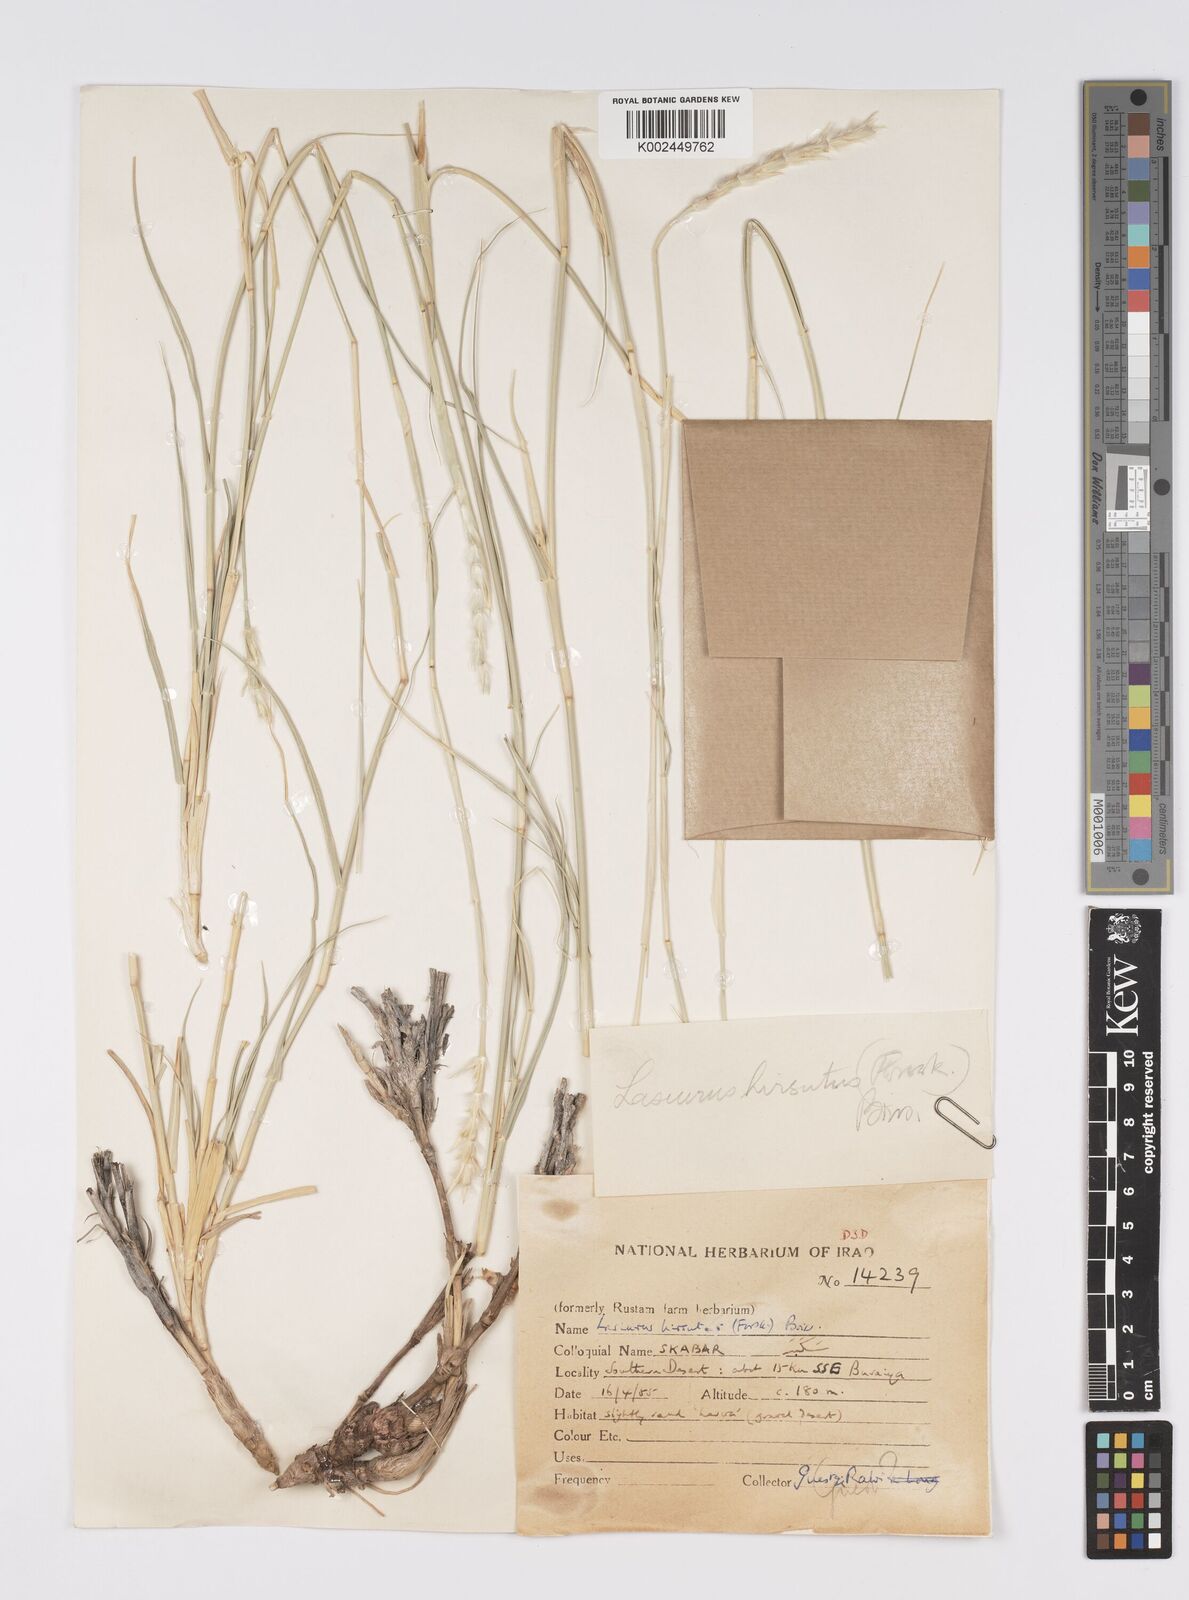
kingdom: Plantae
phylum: Tracheophyta
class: Liliopsida
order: Poales
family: Poaceae
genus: Lasiurus
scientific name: Lasiurus scindicus
